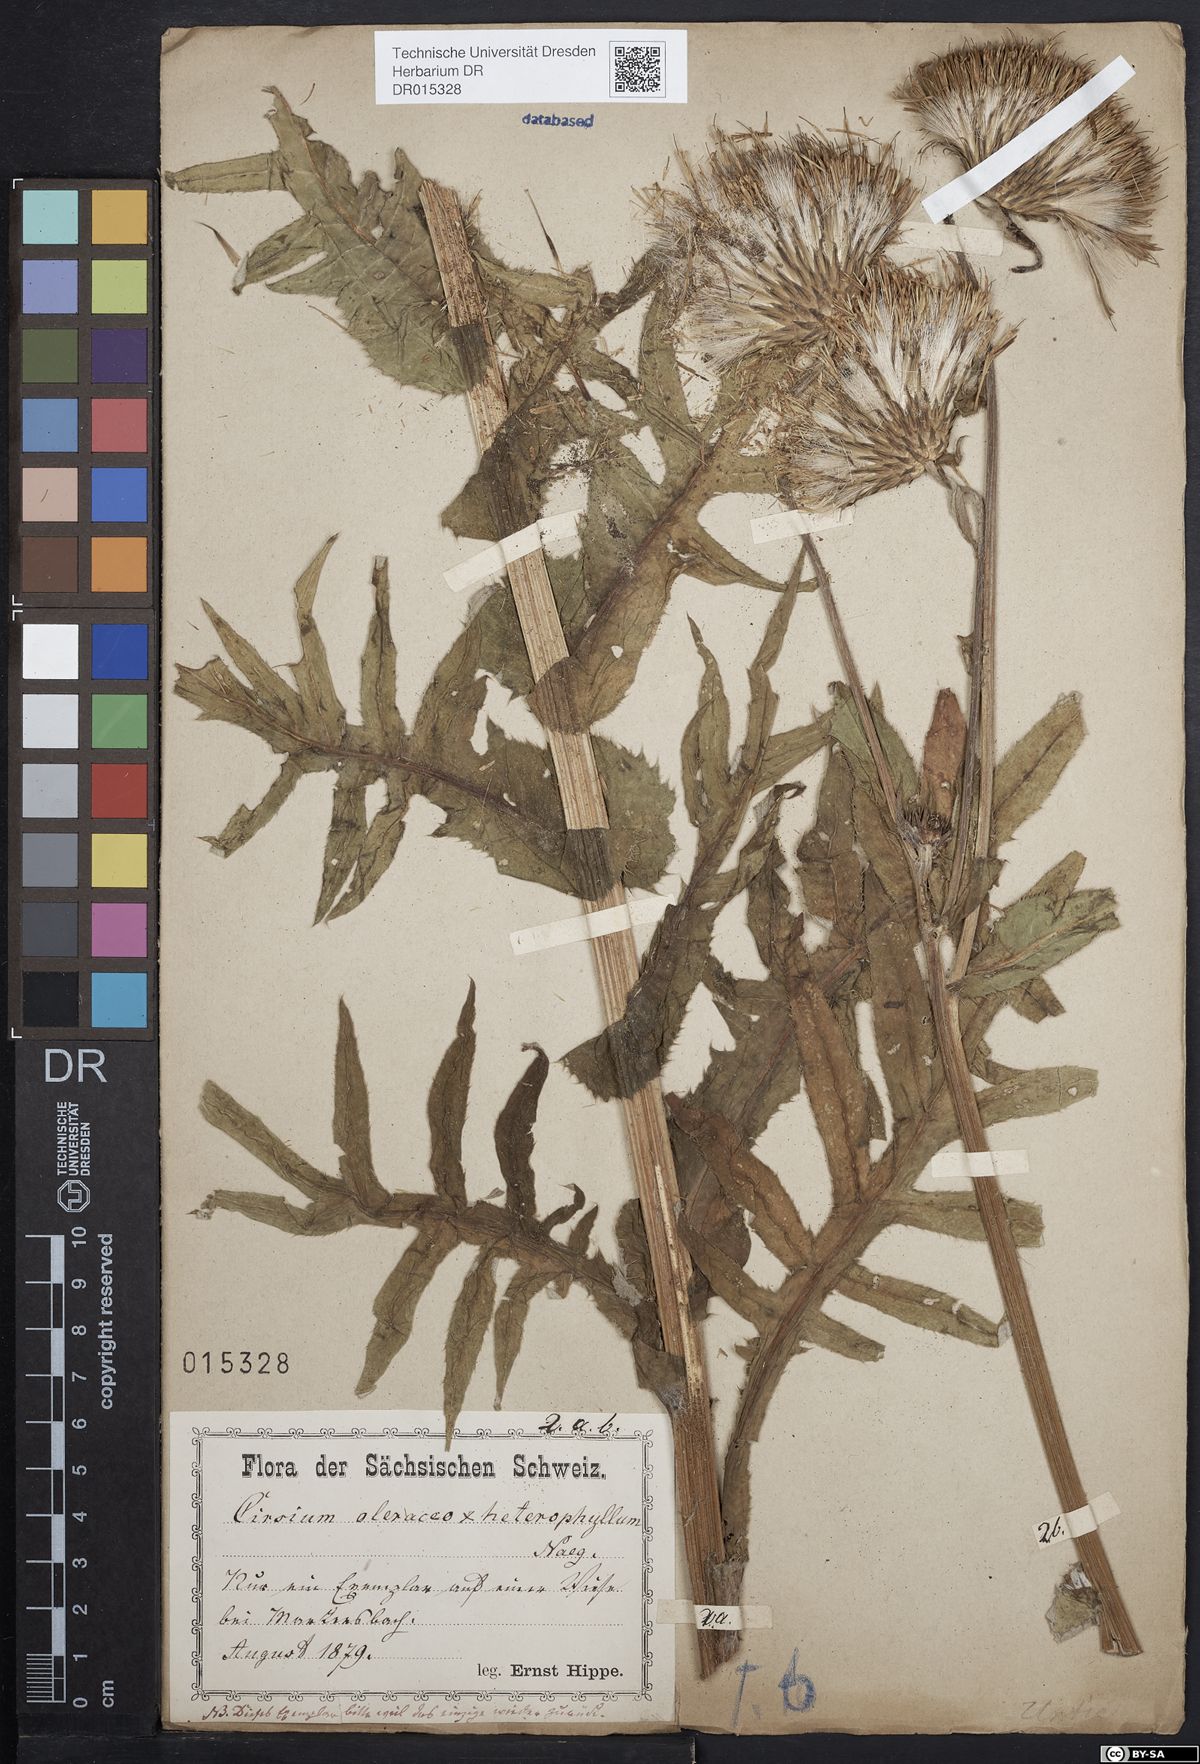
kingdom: Plantae
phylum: Tracheophyta
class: Magnoliopsida
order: Asterales
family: Asteraceae
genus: Cirsium
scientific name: Cirsium affine
